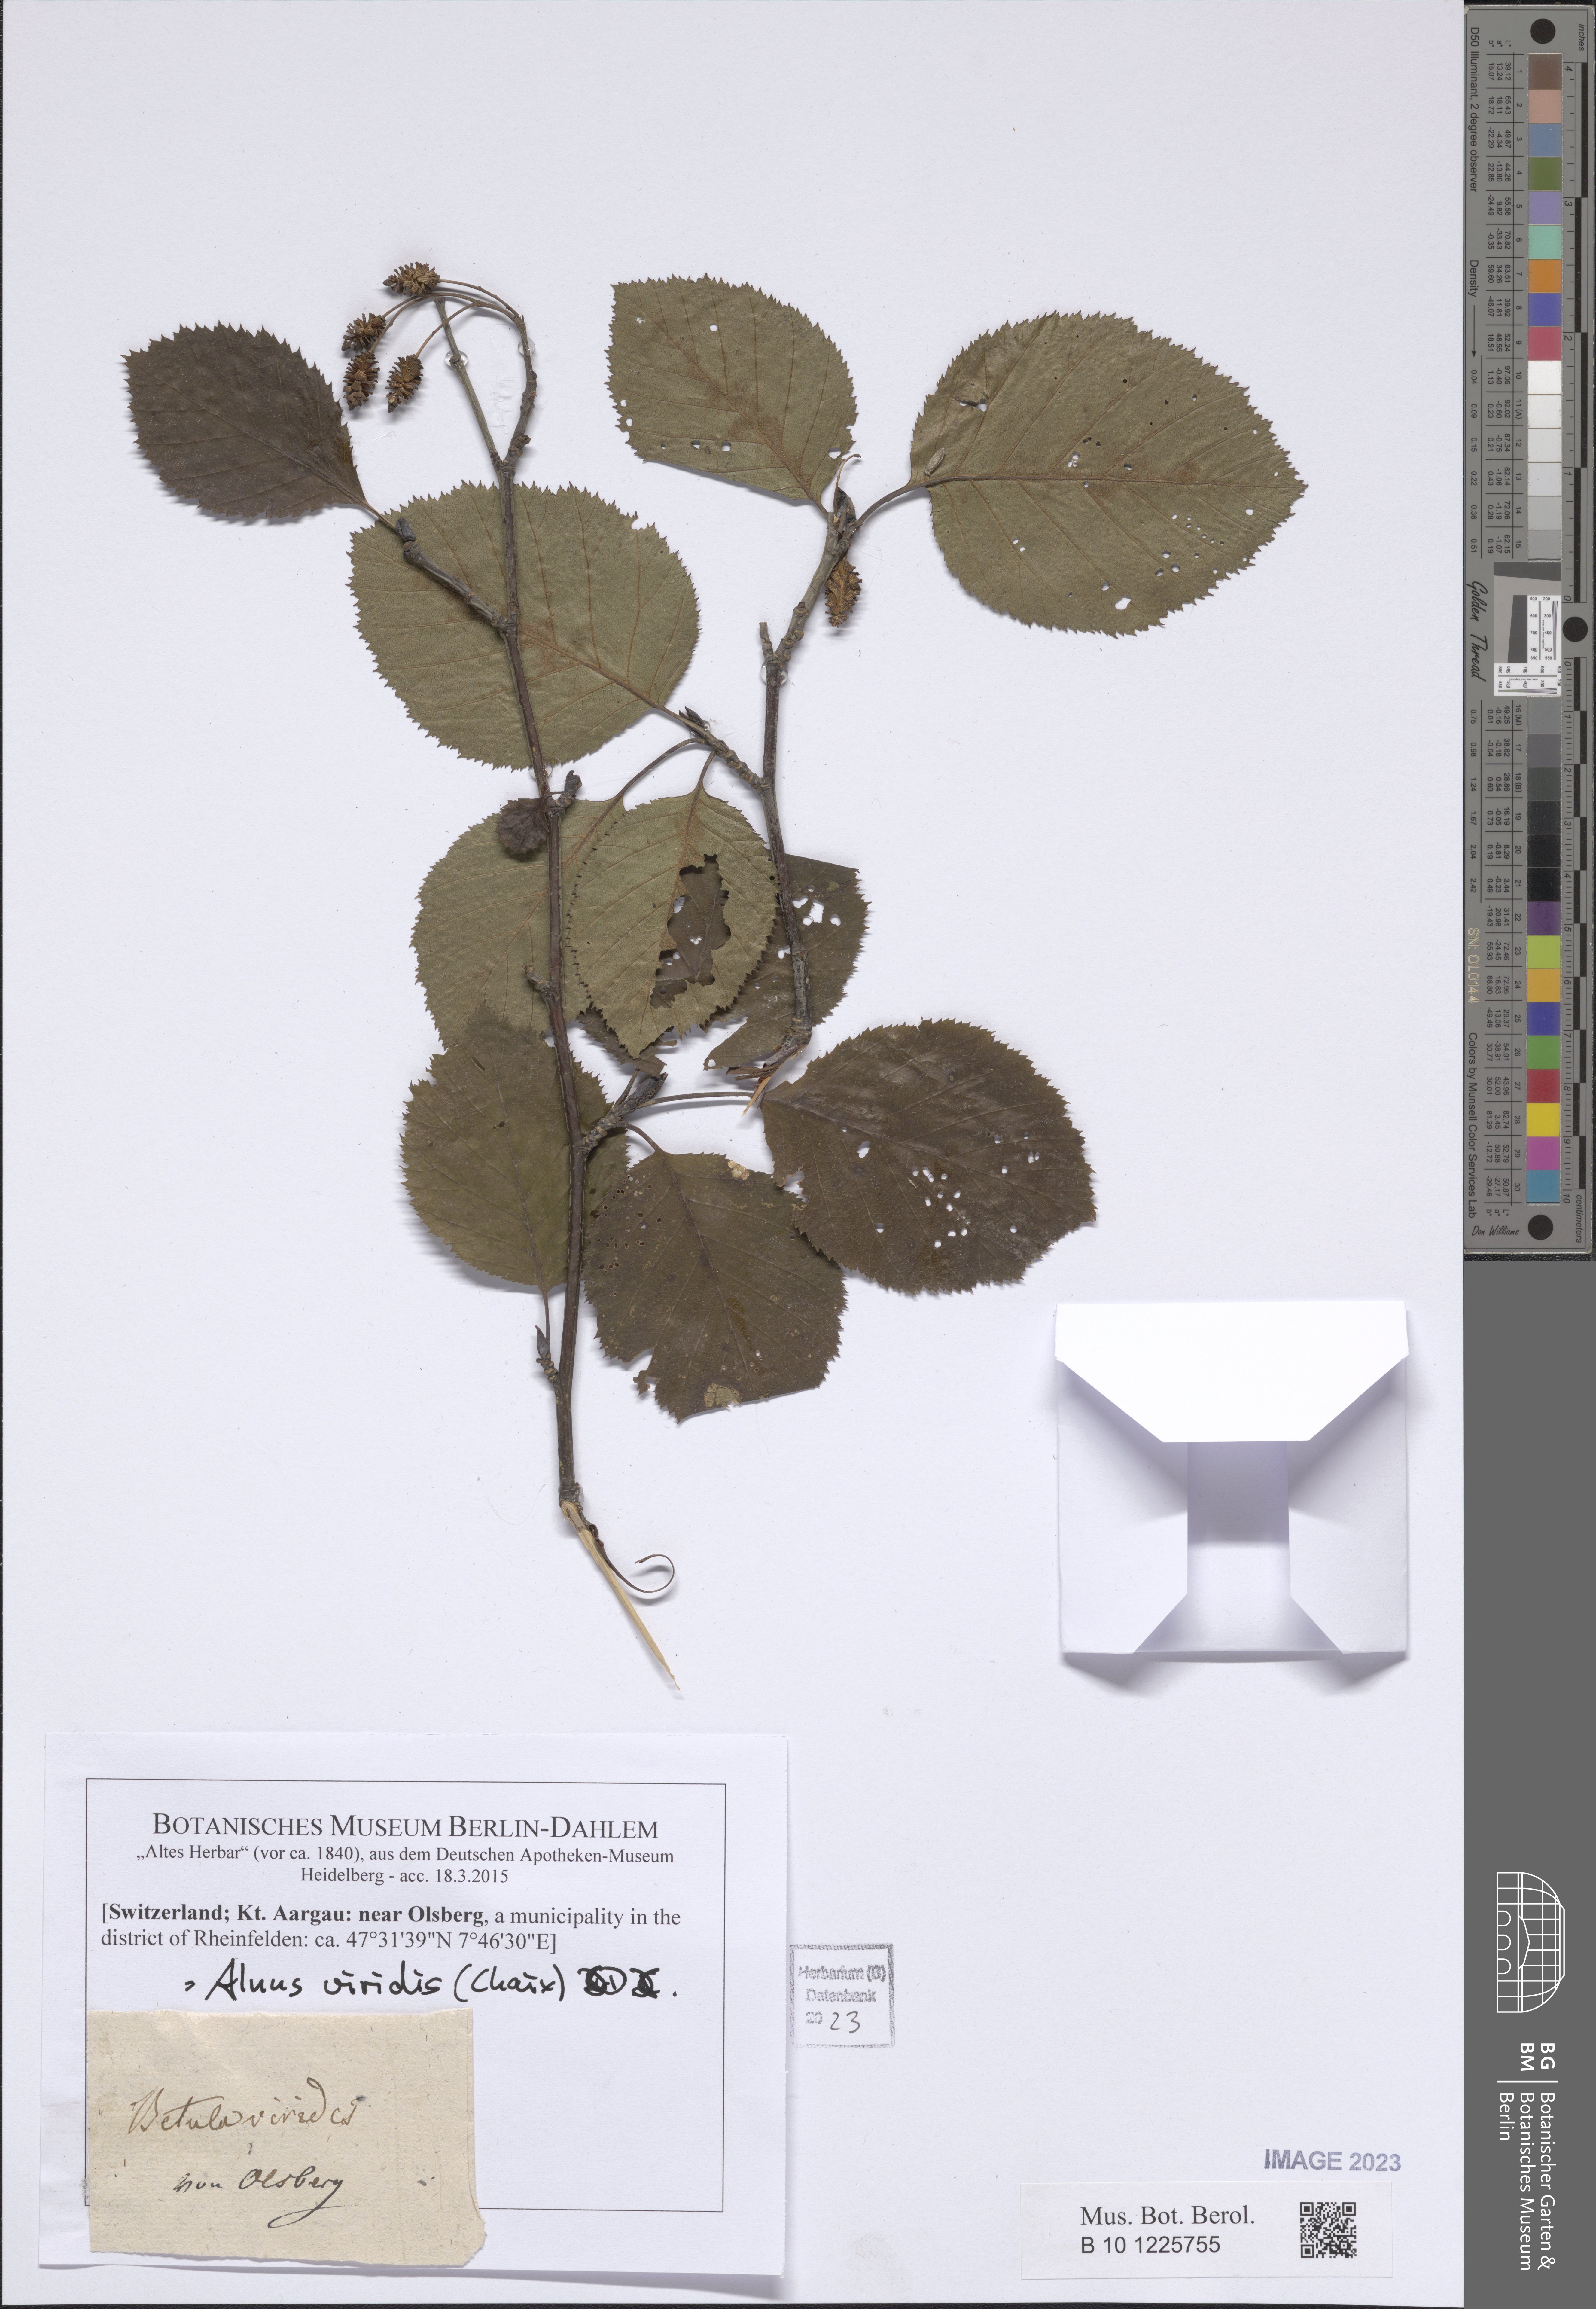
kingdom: Plantae
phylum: Tracheophyta
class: Magnoliopsida
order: Fagales
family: Betulaceae
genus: Alnus
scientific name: Alnus alnobetula
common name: Green alder
